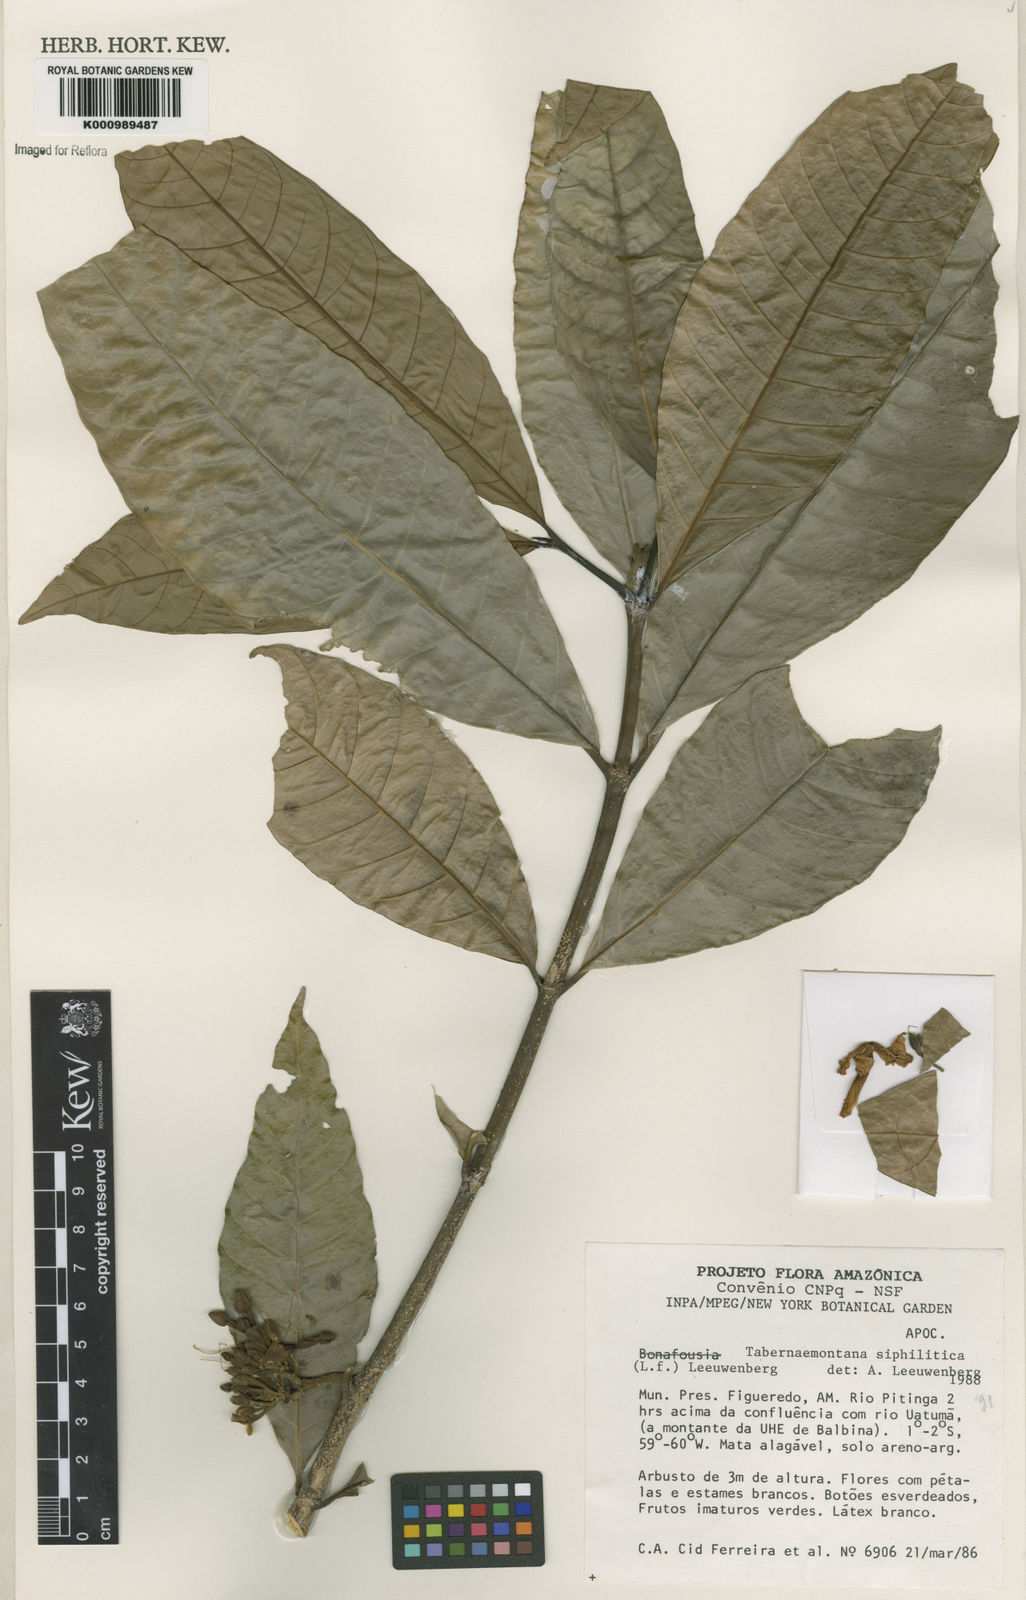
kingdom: Plantae
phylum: Tracheophyta
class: Magnoliopsida
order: Gentianales
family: Apocynaceae
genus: Tabernaemontana
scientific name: Tabernaemontana siphilitica
